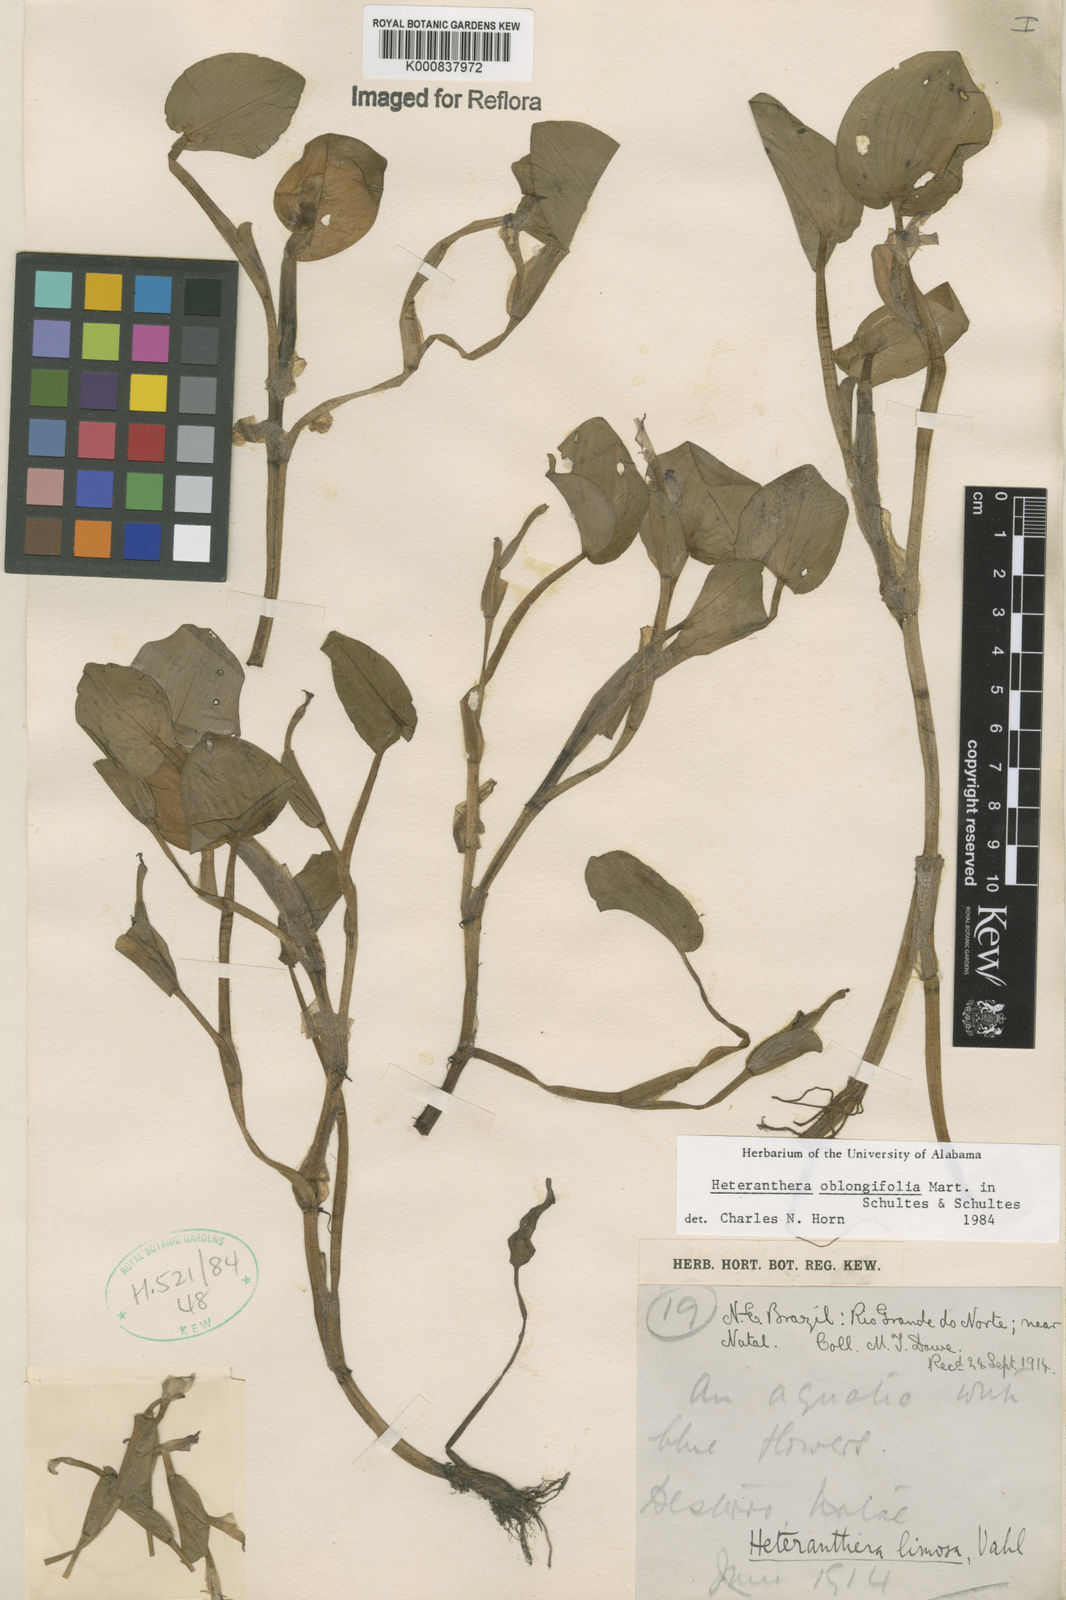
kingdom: Plantae
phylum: Tracheophyta
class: Liliopsida
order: Commelinales
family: Pontederiaceae
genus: Heteranthera
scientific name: Heteranthera oblongifolia
